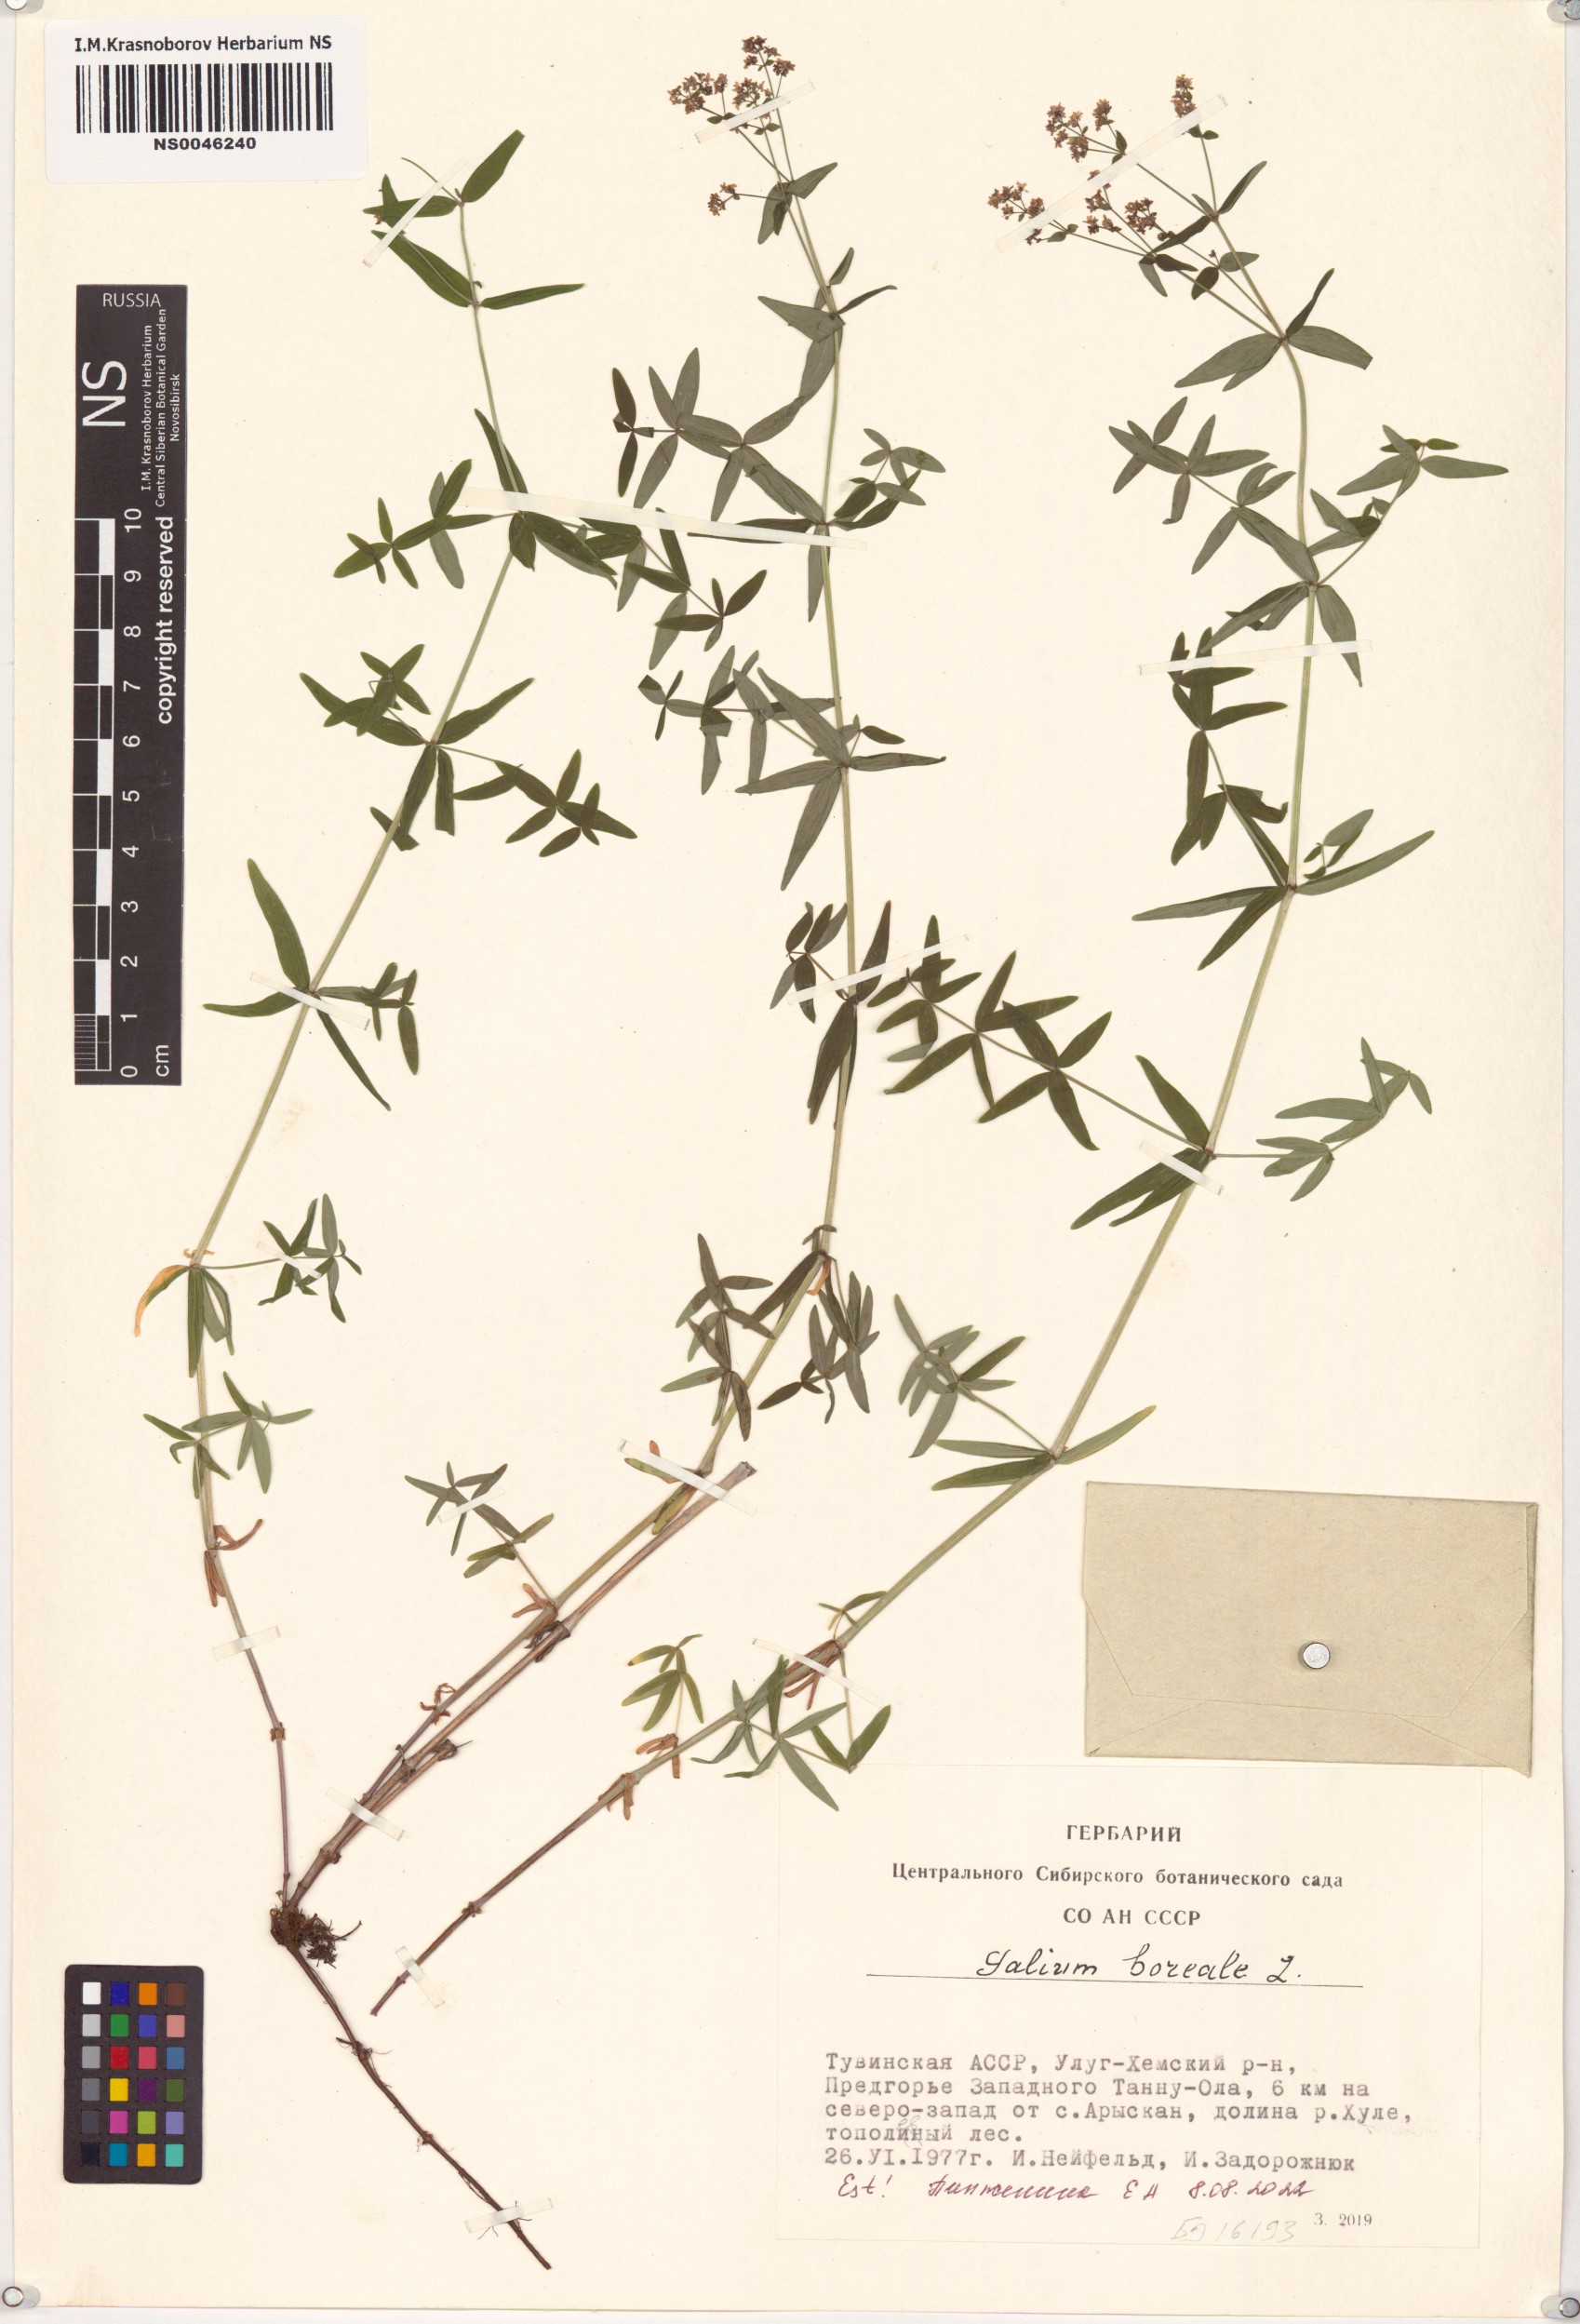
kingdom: Plantae
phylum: Tracheophyta
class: Magnoliopsida
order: Gentianales
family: Rubiaceae
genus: Galium
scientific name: Galium boreale
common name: Northern bedstraw
